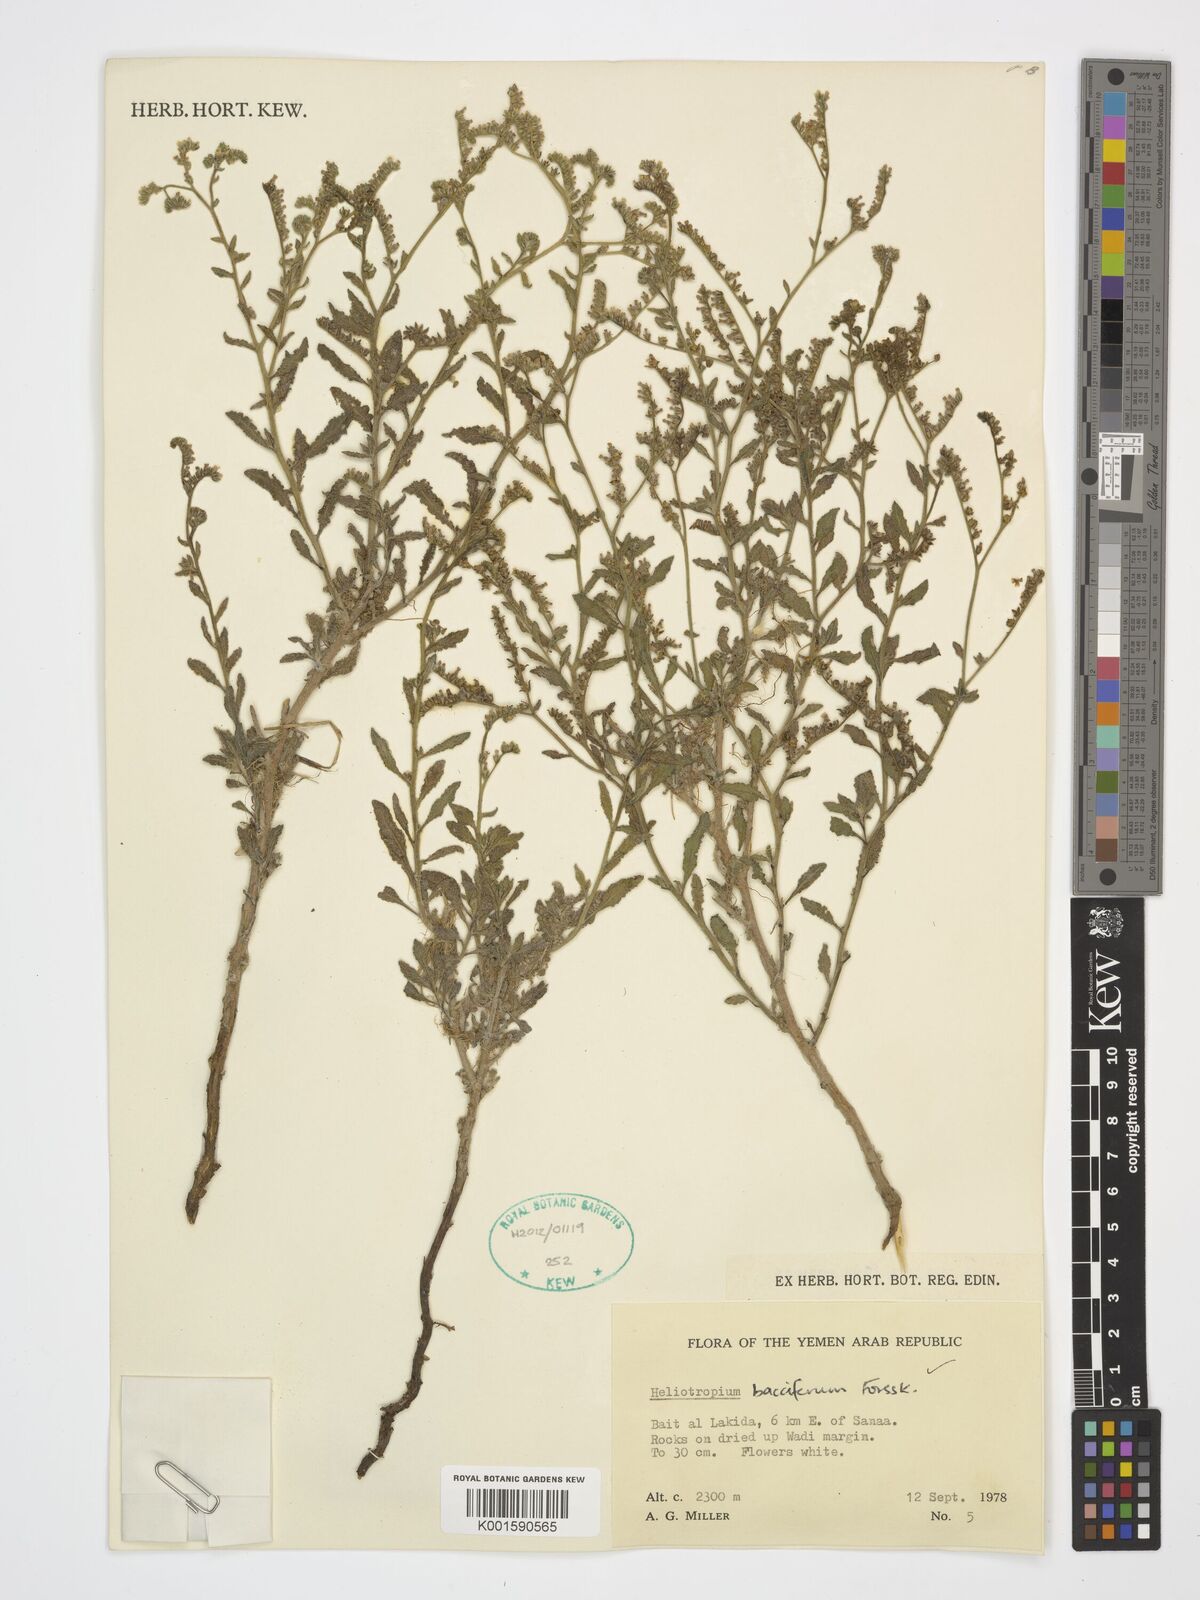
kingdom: Plantae
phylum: Tracheophyta
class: Magnoliopsida
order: Boraginales
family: Heliotropiaceae
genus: Heliotropium
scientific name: Heliotropium bacciferum
